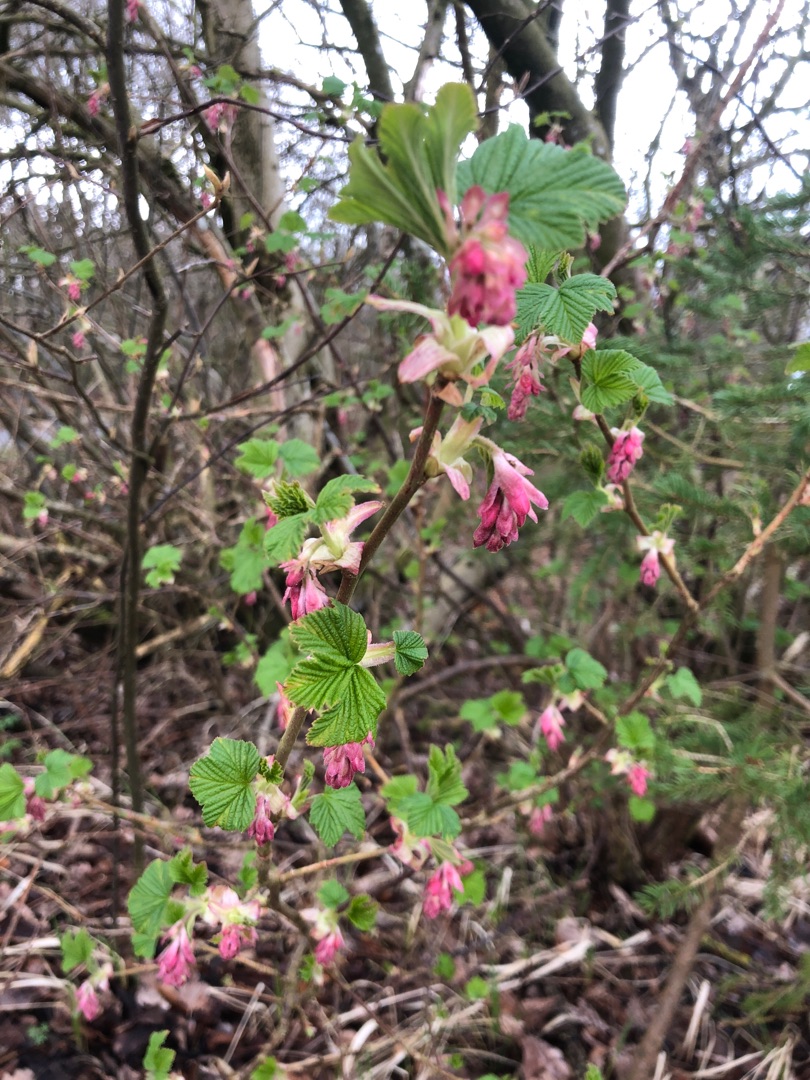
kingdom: Plantae
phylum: Tracheophyta
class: Magnoliopsida
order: Saxifragales
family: Grossulariaceae
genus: Ribes
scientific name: Ribes sanguineum
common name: Blod-ribs
